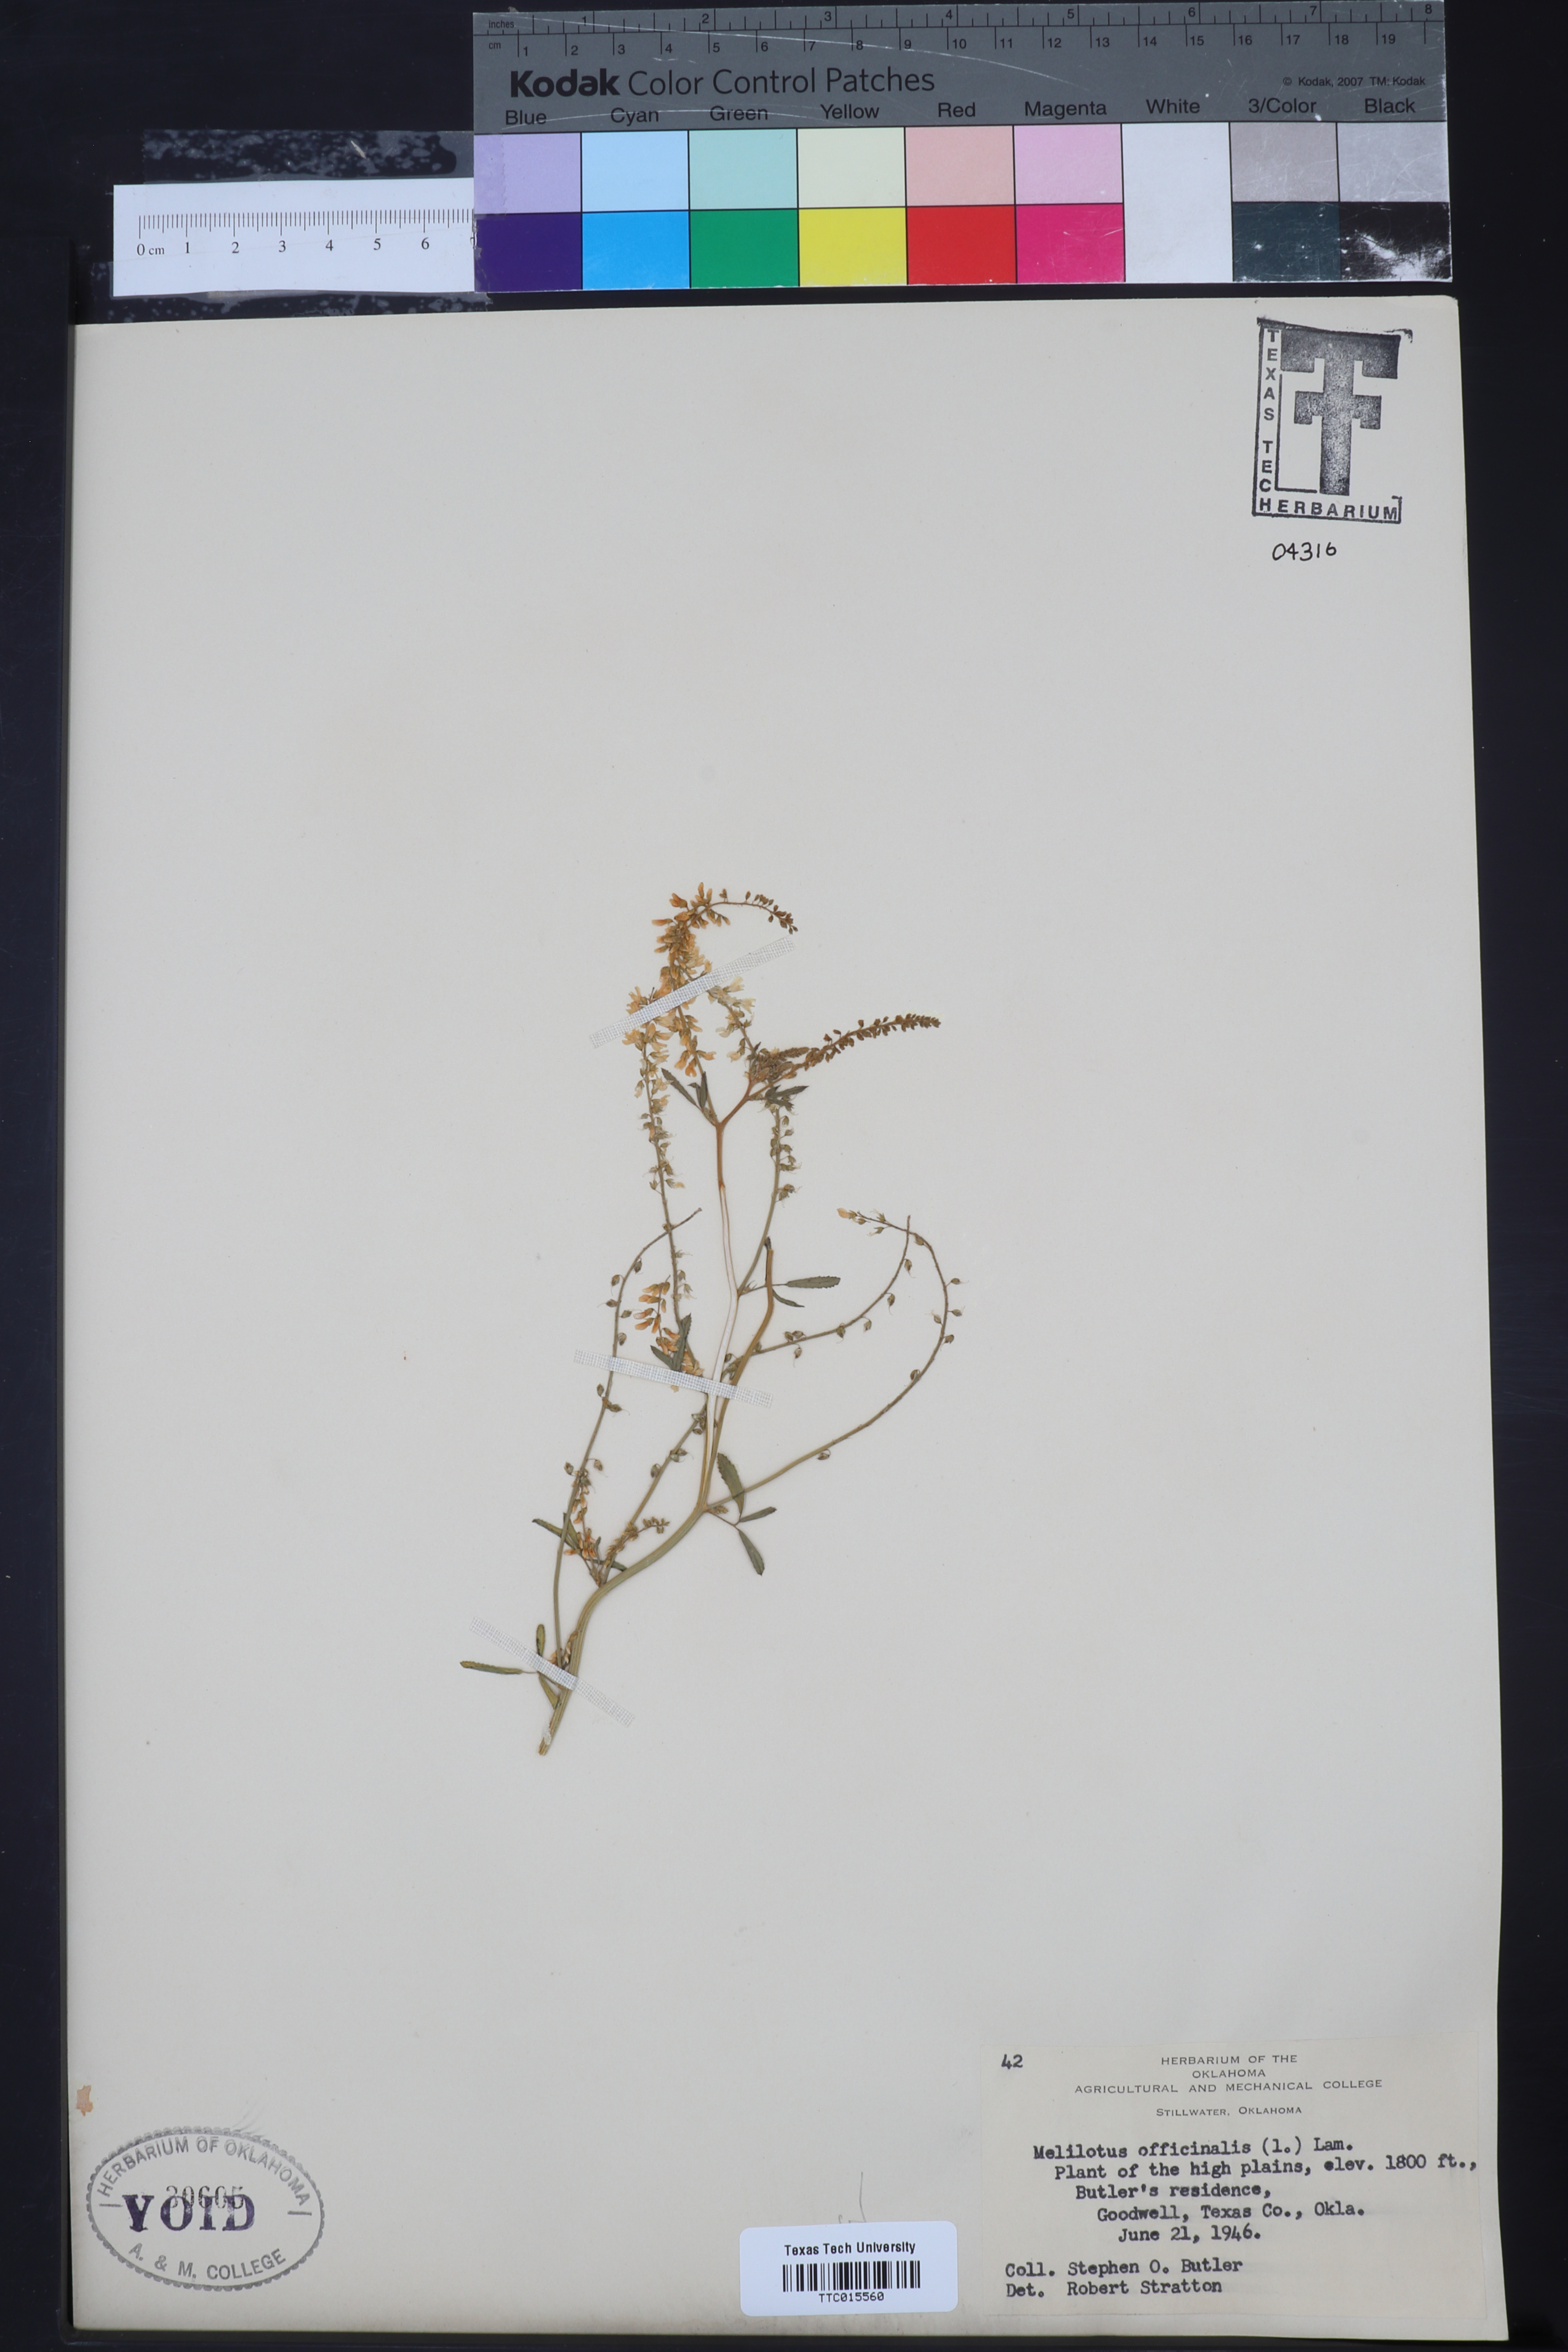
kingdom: Plantae
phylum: Tracheophyta
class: Magnoliopsida
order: Fabales
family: Fabaceae
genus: Melilotus
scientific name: Melilotus officinalis
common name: Sweetclover
